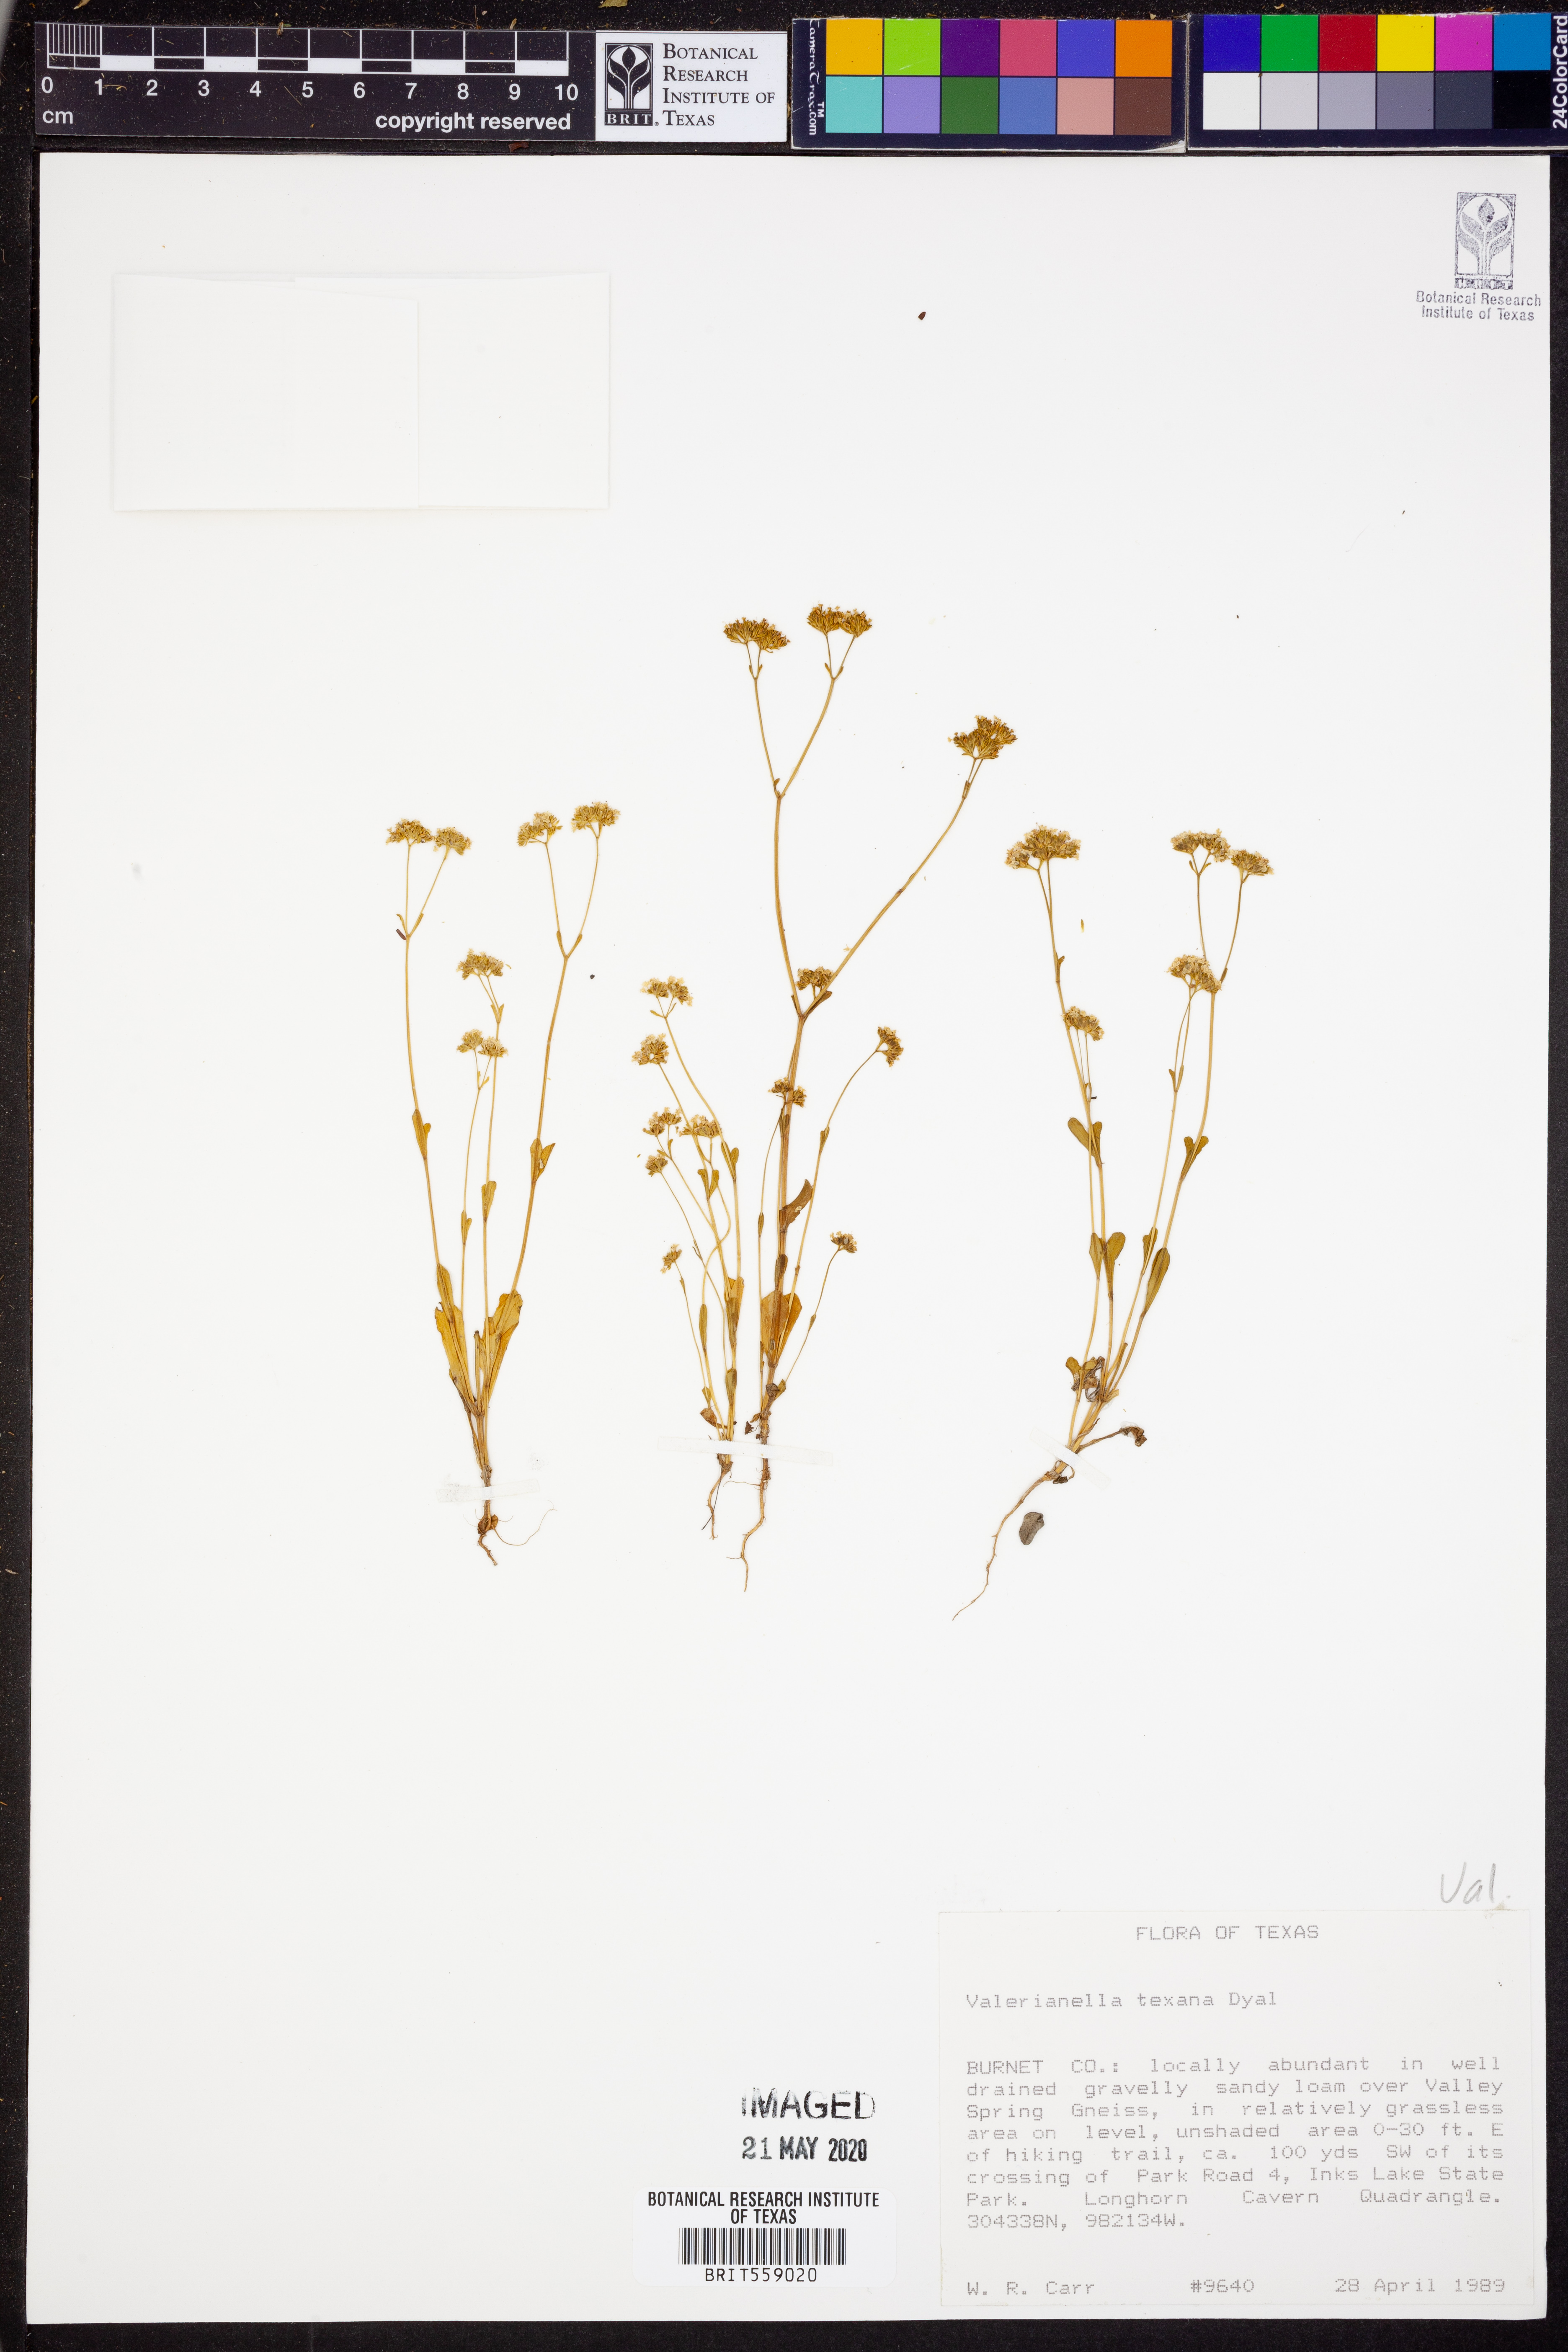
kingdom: Plantae
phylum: Tracheophyta
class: Magnoliopsida
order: Dipsacales
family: Caprifoliaceae
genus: Valerianella
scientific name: Valerianella texana
